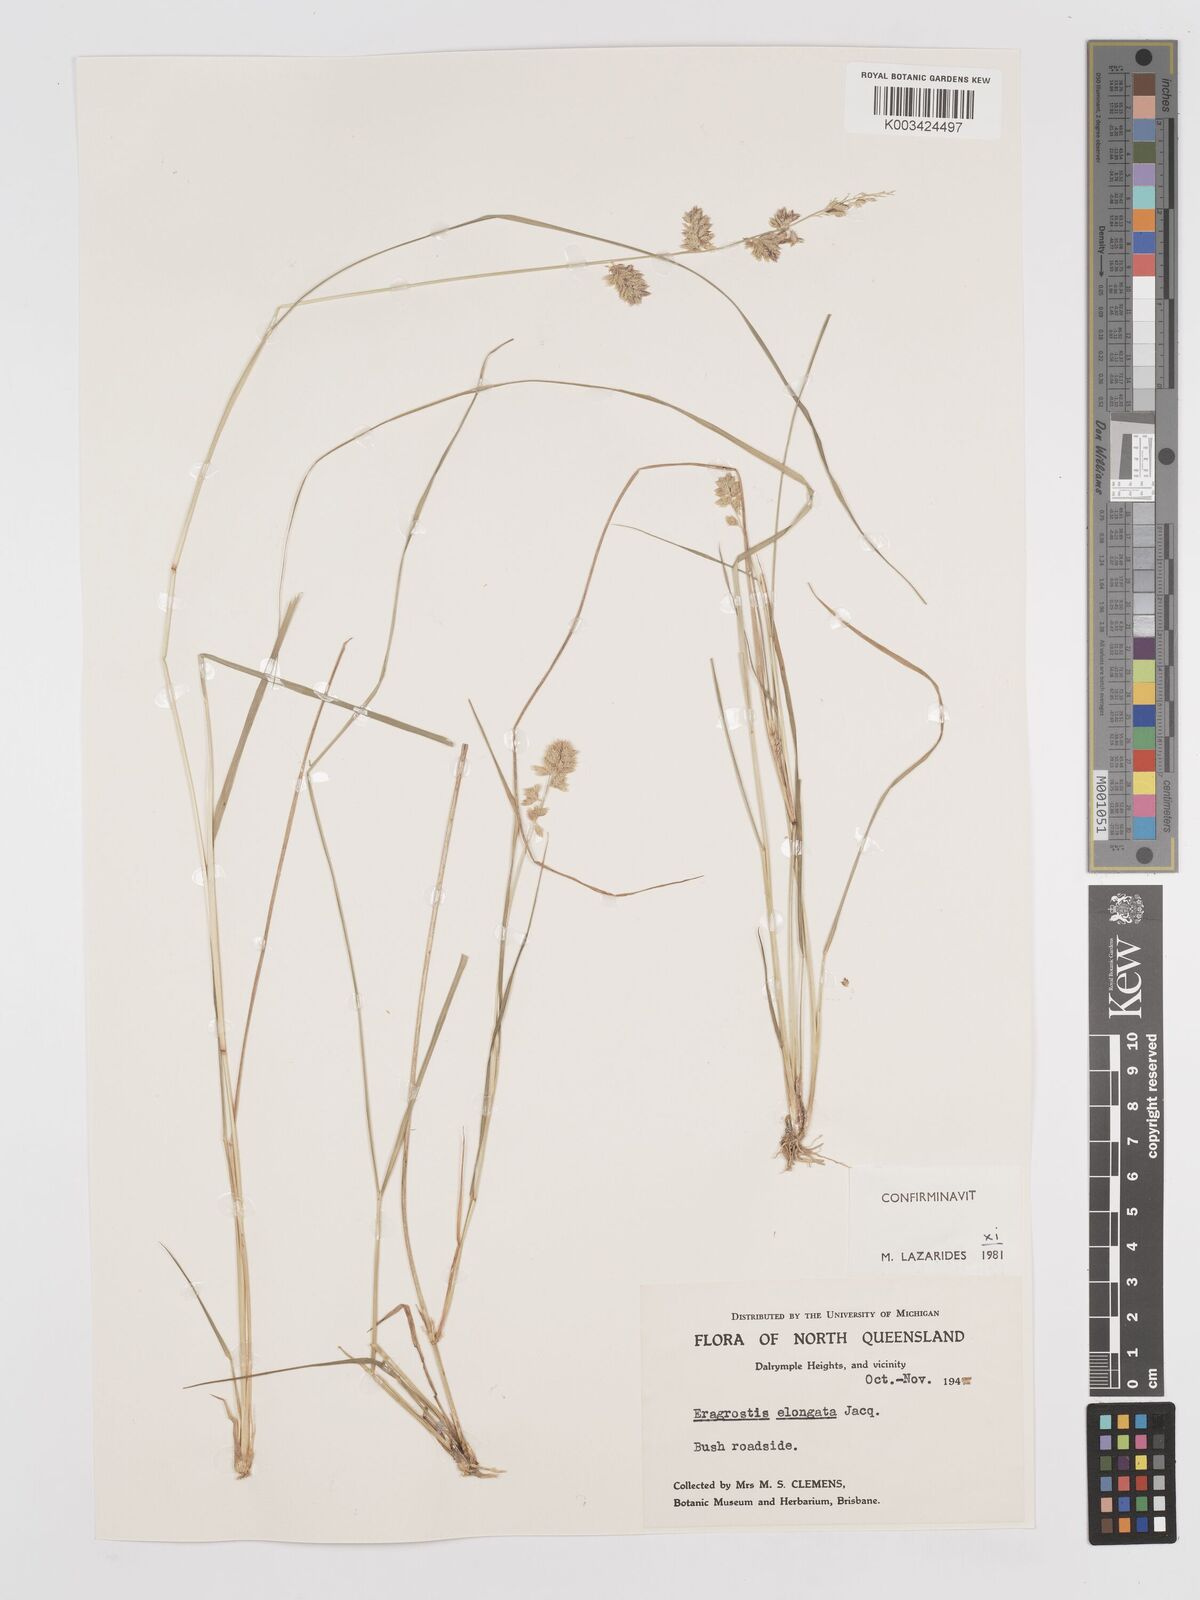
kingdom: Plantae
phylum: Tracheophyta
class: Liliopsida
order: Poales
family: Poaceae
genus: Eragrostis
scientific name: Eragrostis elongata
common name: Long lovegrass
